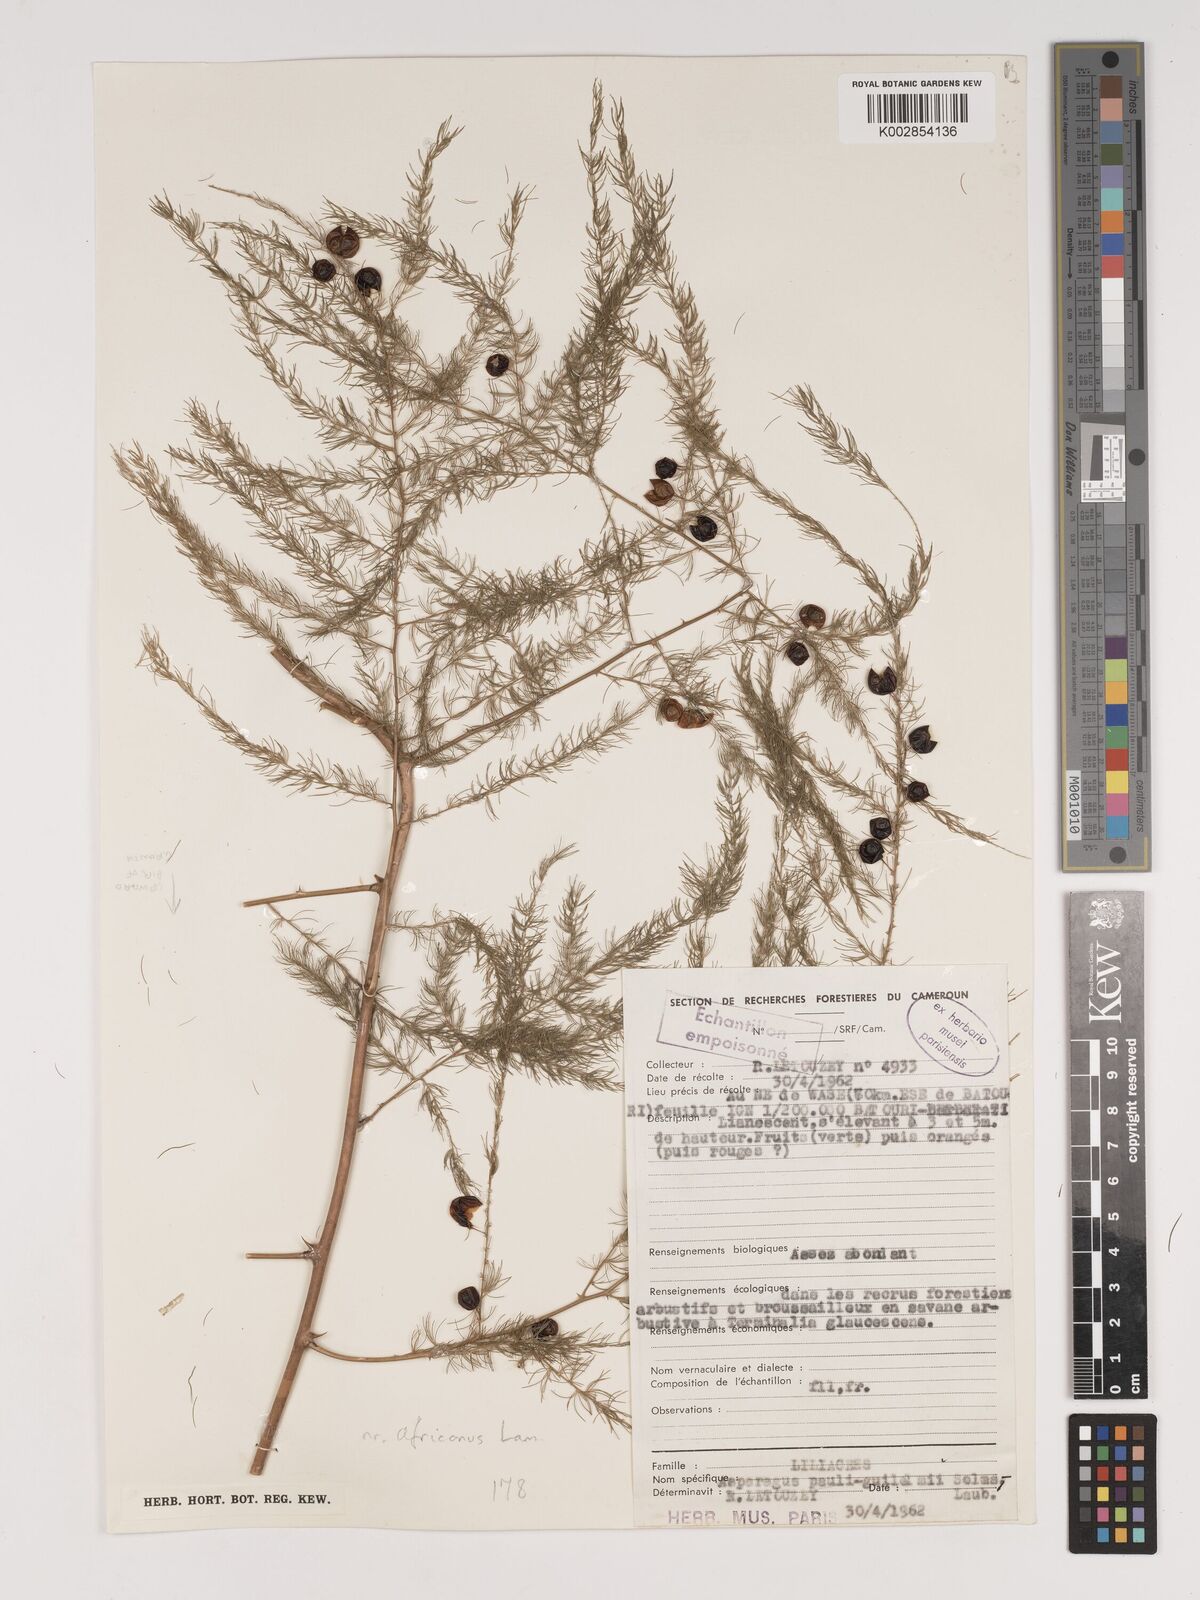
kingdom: Plantae
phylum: Tracheophyta
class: Liliopsida
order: Asparagales
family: Asparagaceae
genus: Asparagus
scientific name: Asparagus africanus
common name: Asparagus-fern
